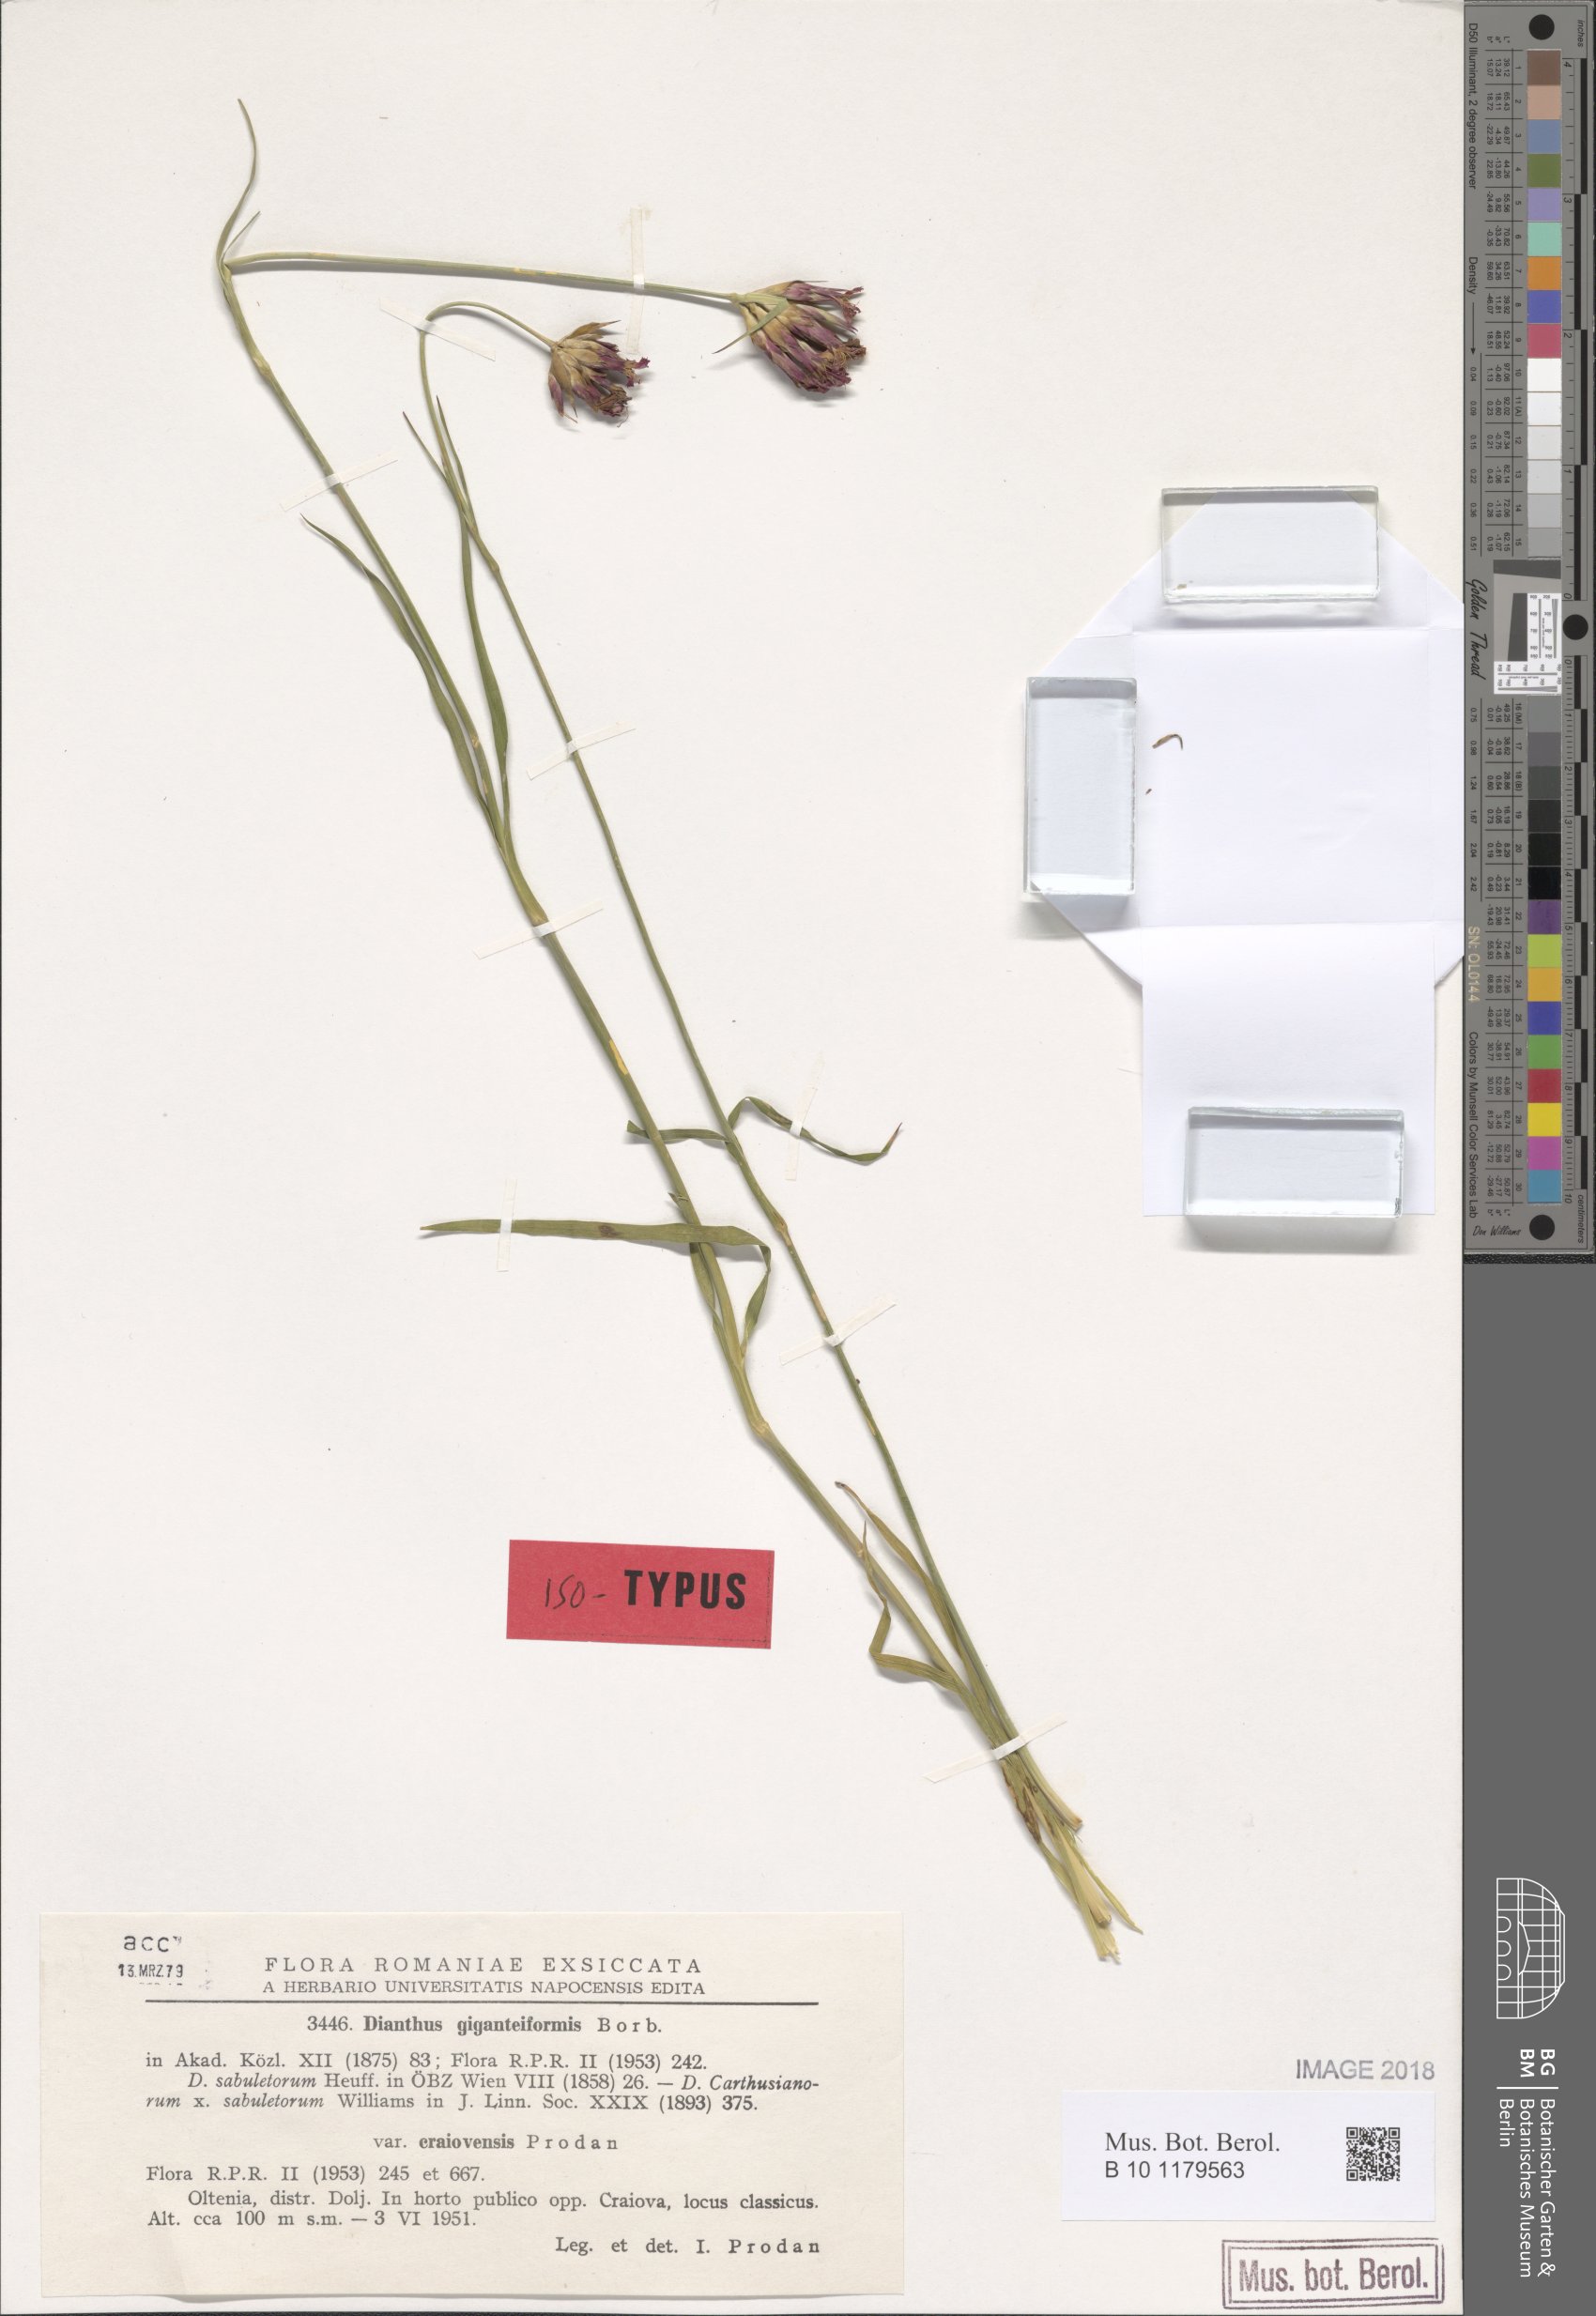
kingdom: Plantae
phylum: Tracheophyta
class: Magnoliopsida
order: Caryophyllales
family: Caryophyllaceae
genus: Dianthus
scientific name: Dianthus giganteiformis
